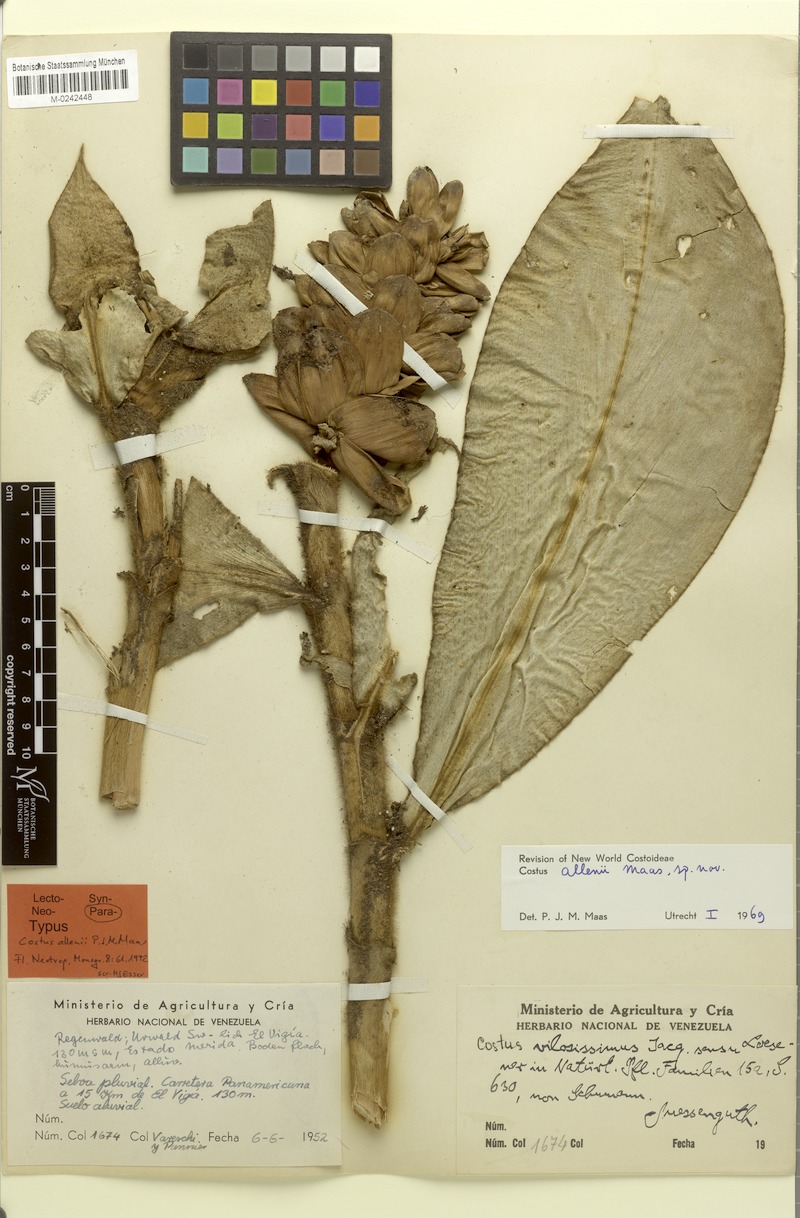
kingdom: Plantae
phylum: Tracheophyta
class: Liliopsida
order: Zingiberales
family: Costaceae
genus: Costus
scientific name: Costus allenii
